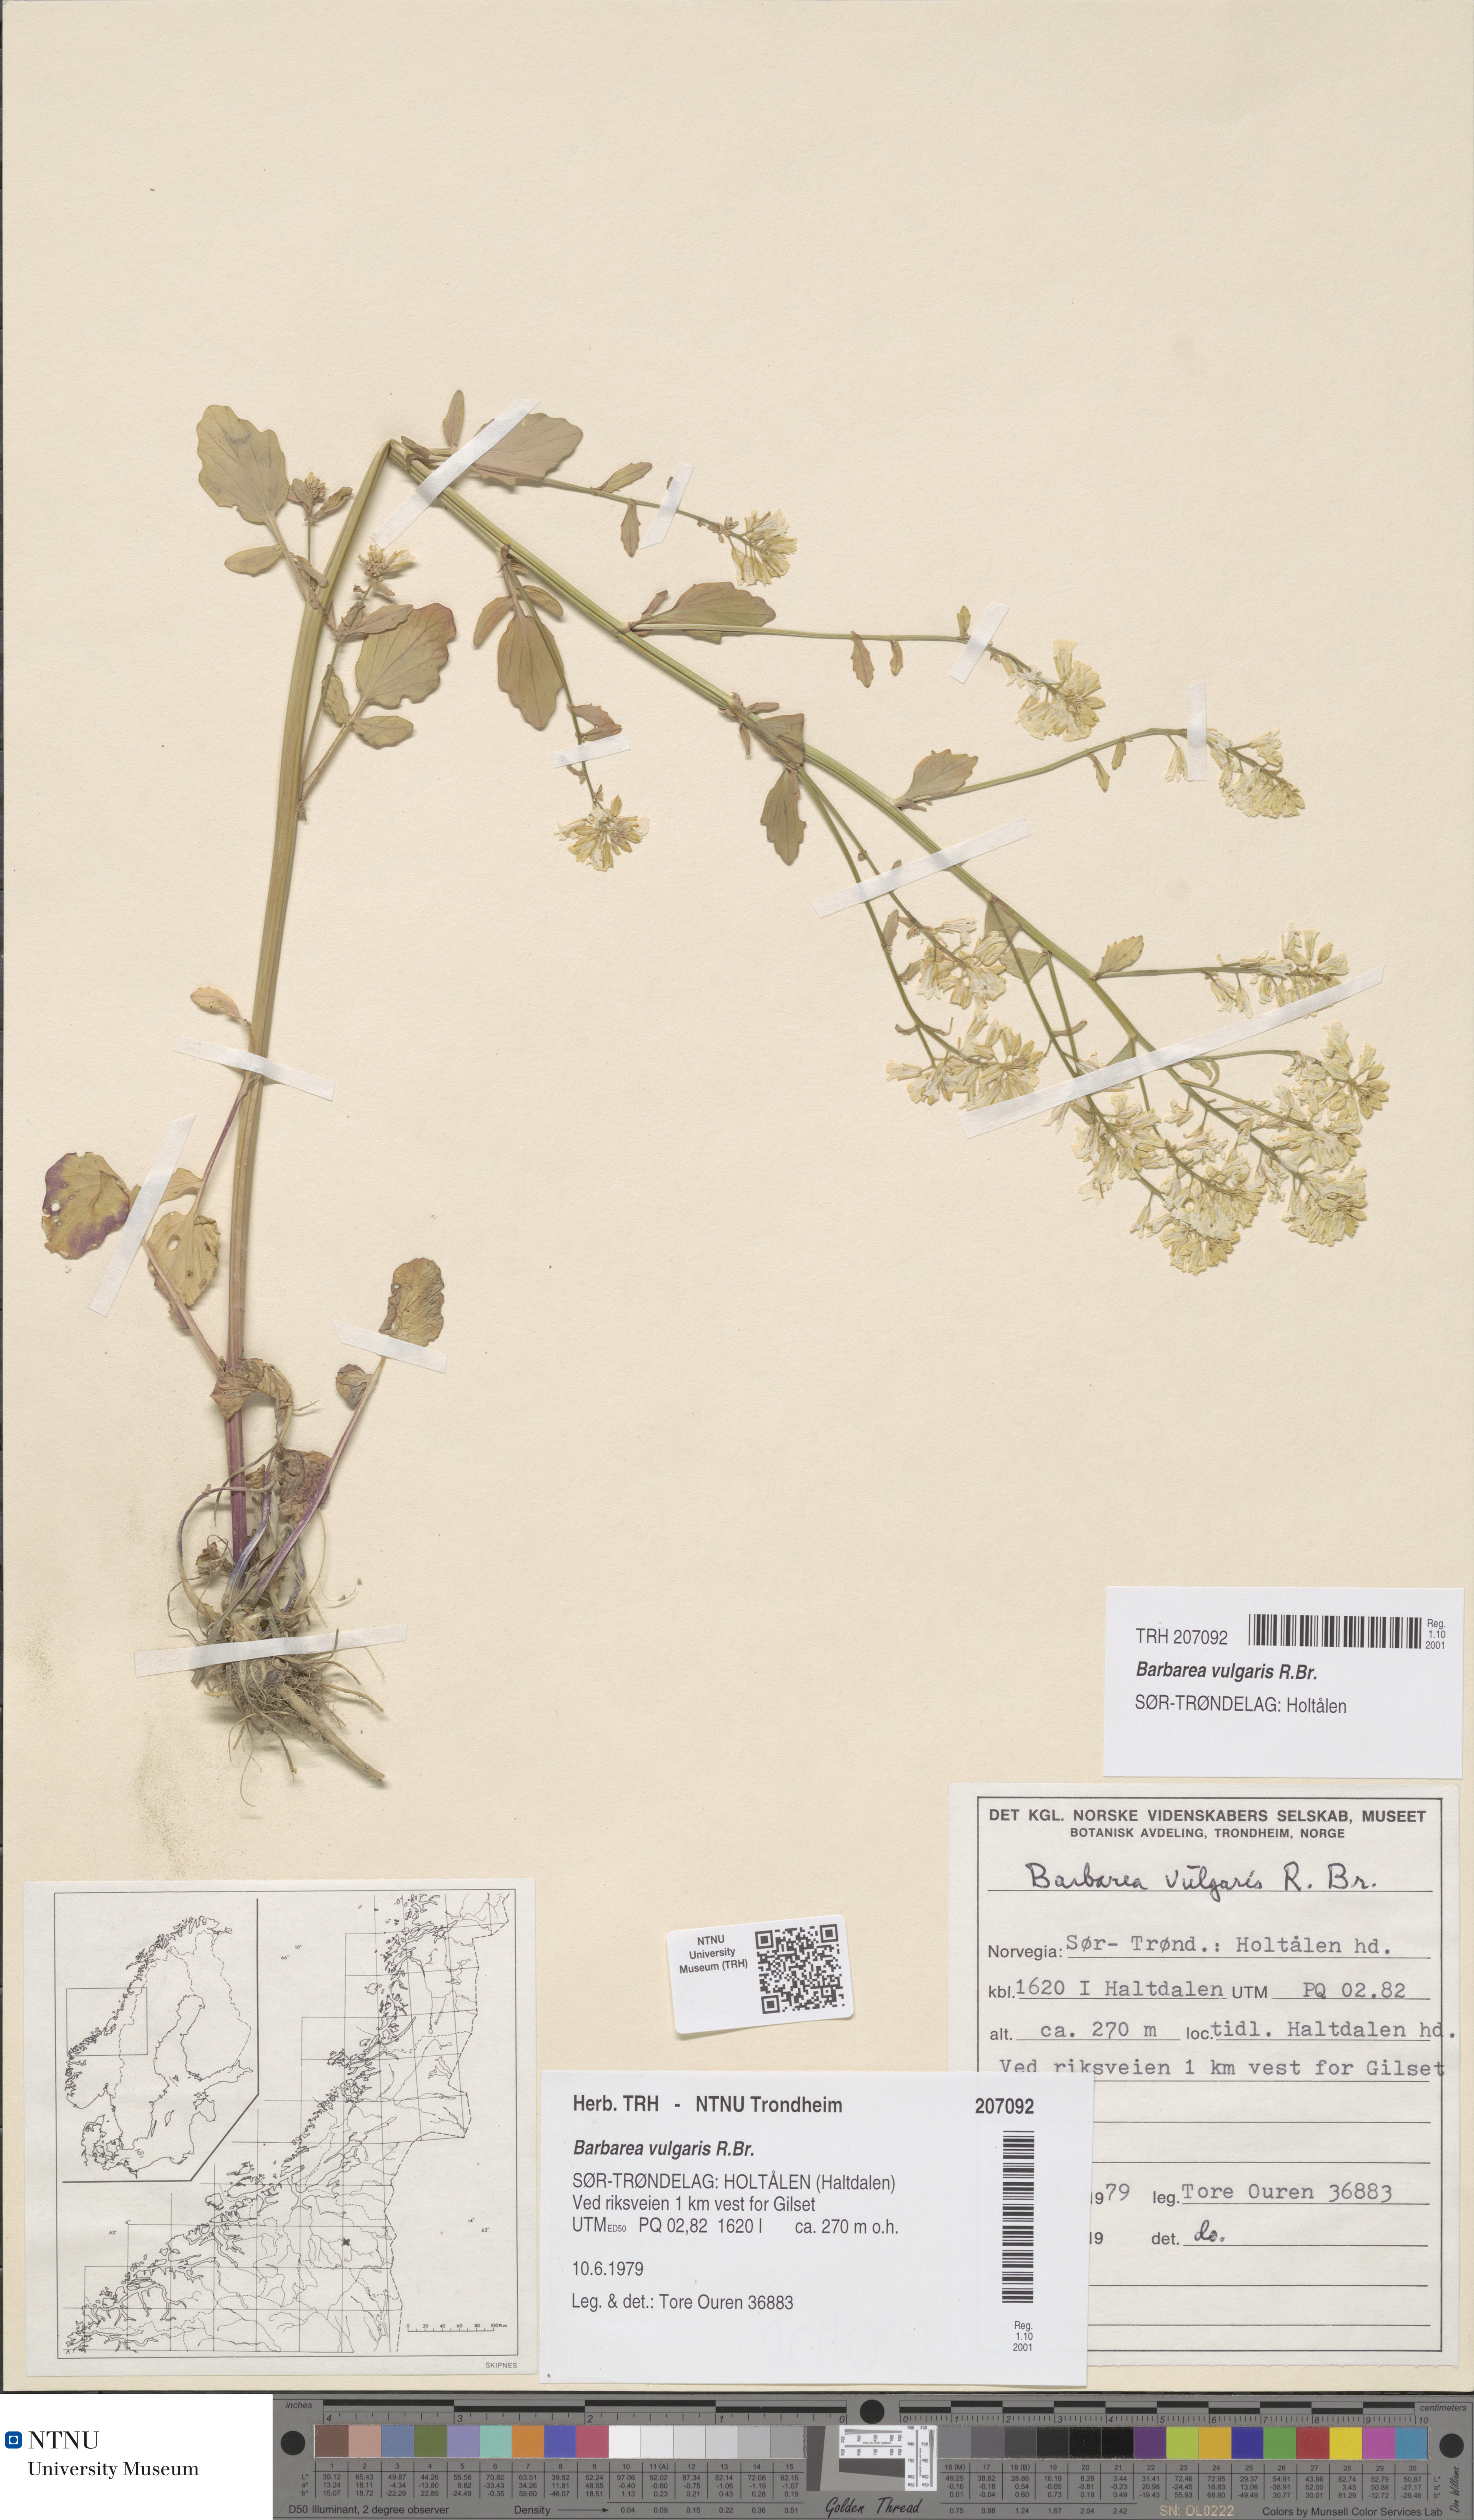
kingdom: Plantae
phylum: Tracheophyta
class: Magnoliopsida
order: Brassicales
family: Brassicaceae
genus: Barbarea
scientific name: Barbarea vulgaris
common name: Cressy-greens
